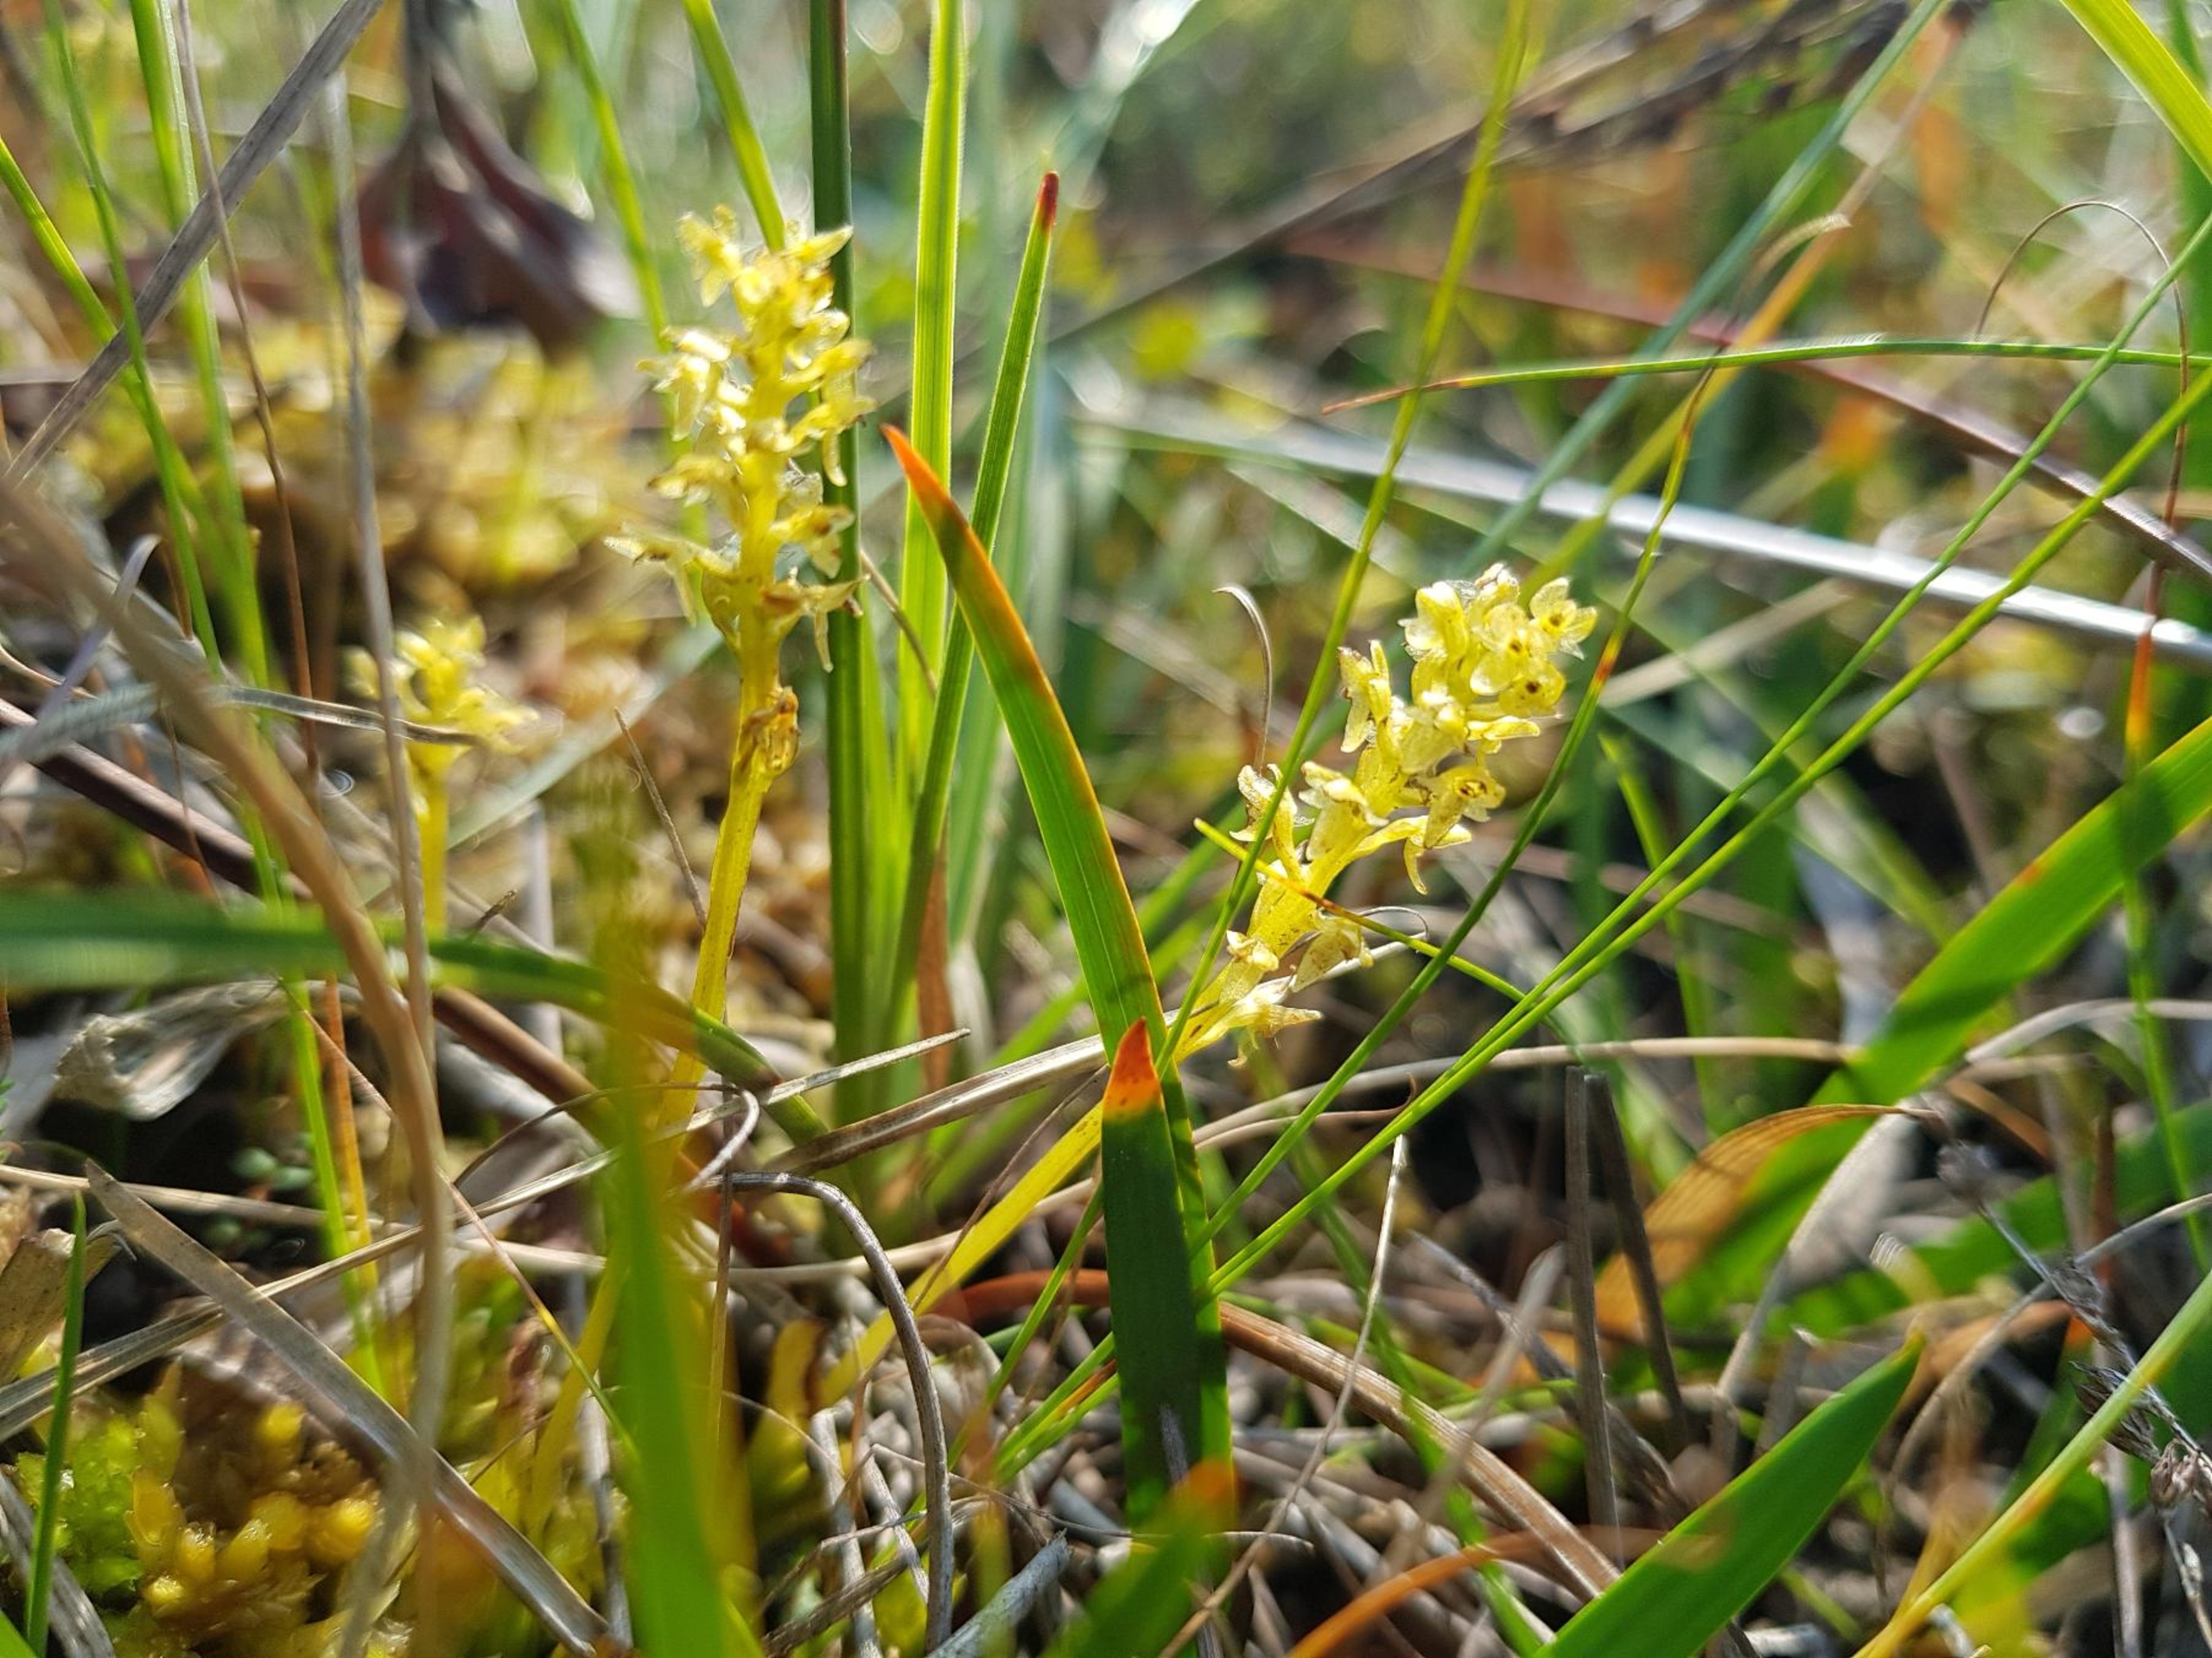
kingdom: Plantae
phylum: Tracheophyta
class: Liliopsida
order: Asparagales
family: Orchidaceae
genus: Hammarbya
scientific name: Hammarbya paludosa
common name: Hjertelæbe
